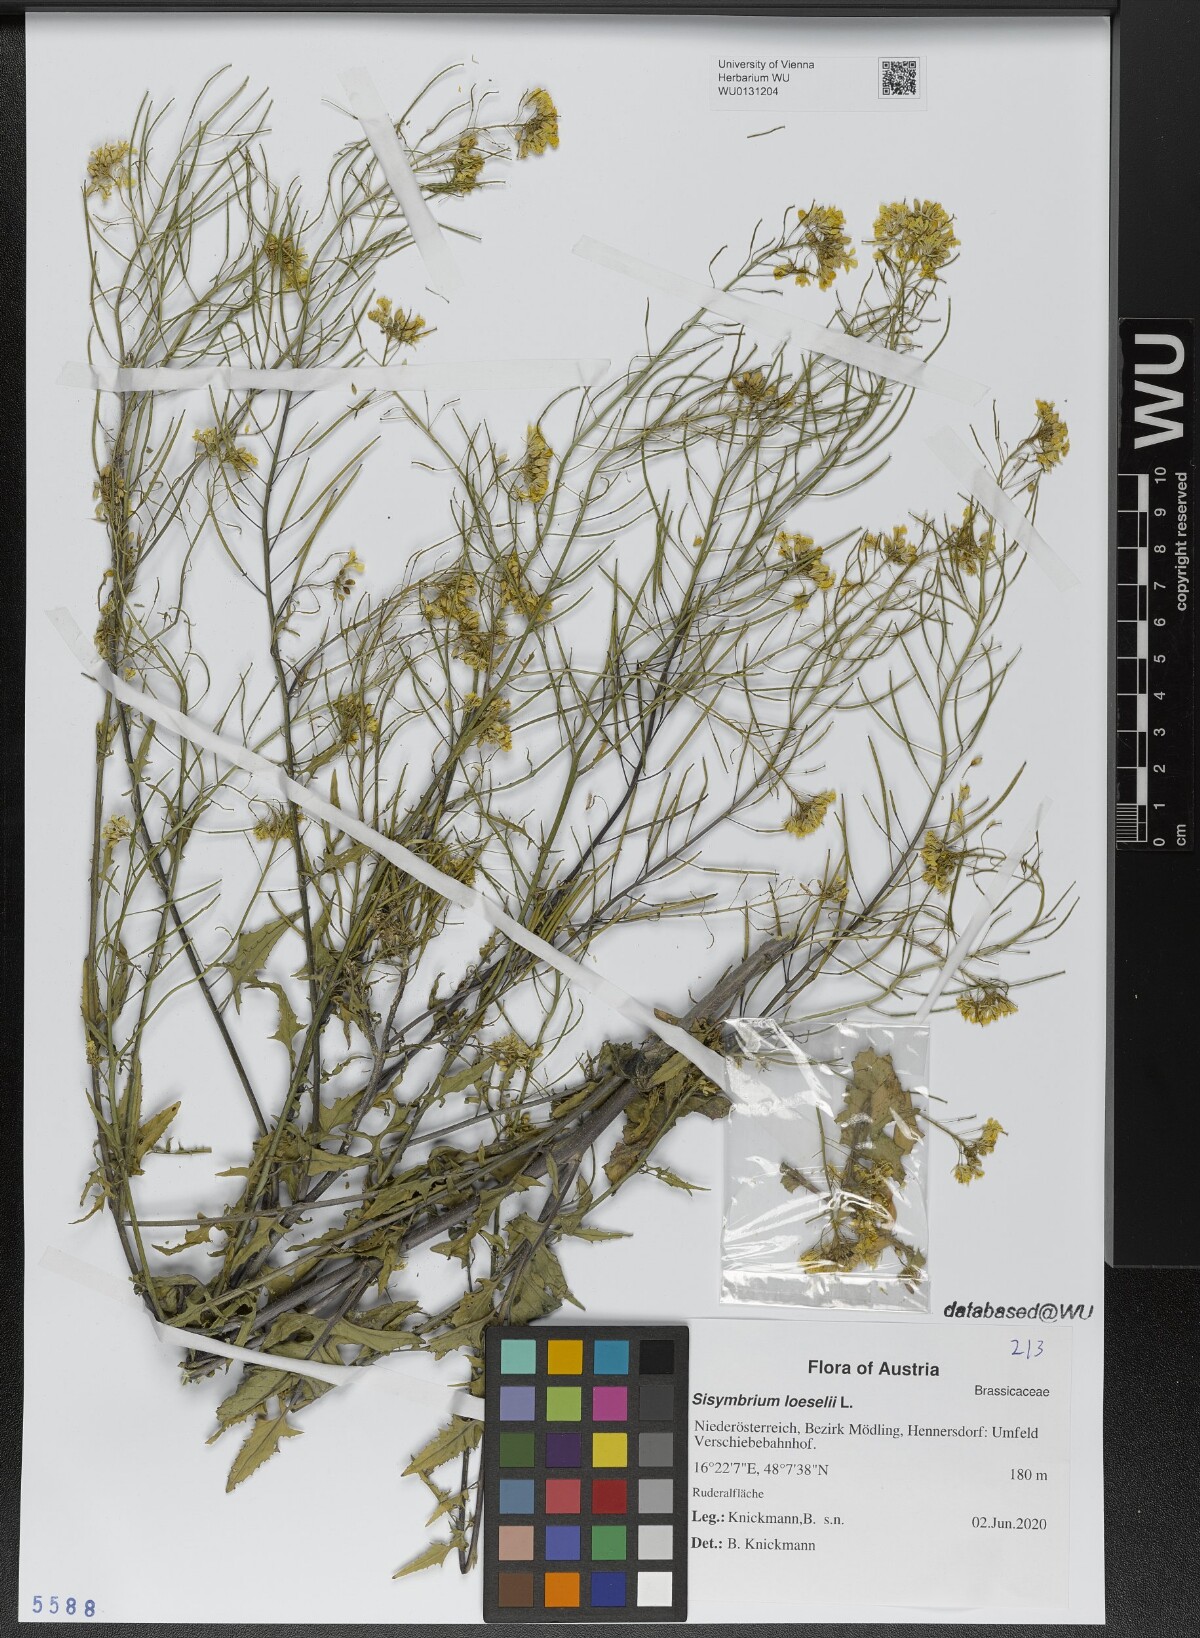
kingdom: Plantae
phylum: Tracheophyta
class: Magnoliopsida
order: Brassicales
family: Brassicaceae
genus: Sisymbrium
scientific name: Sisymbrium loeselii
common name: False london-rocket
